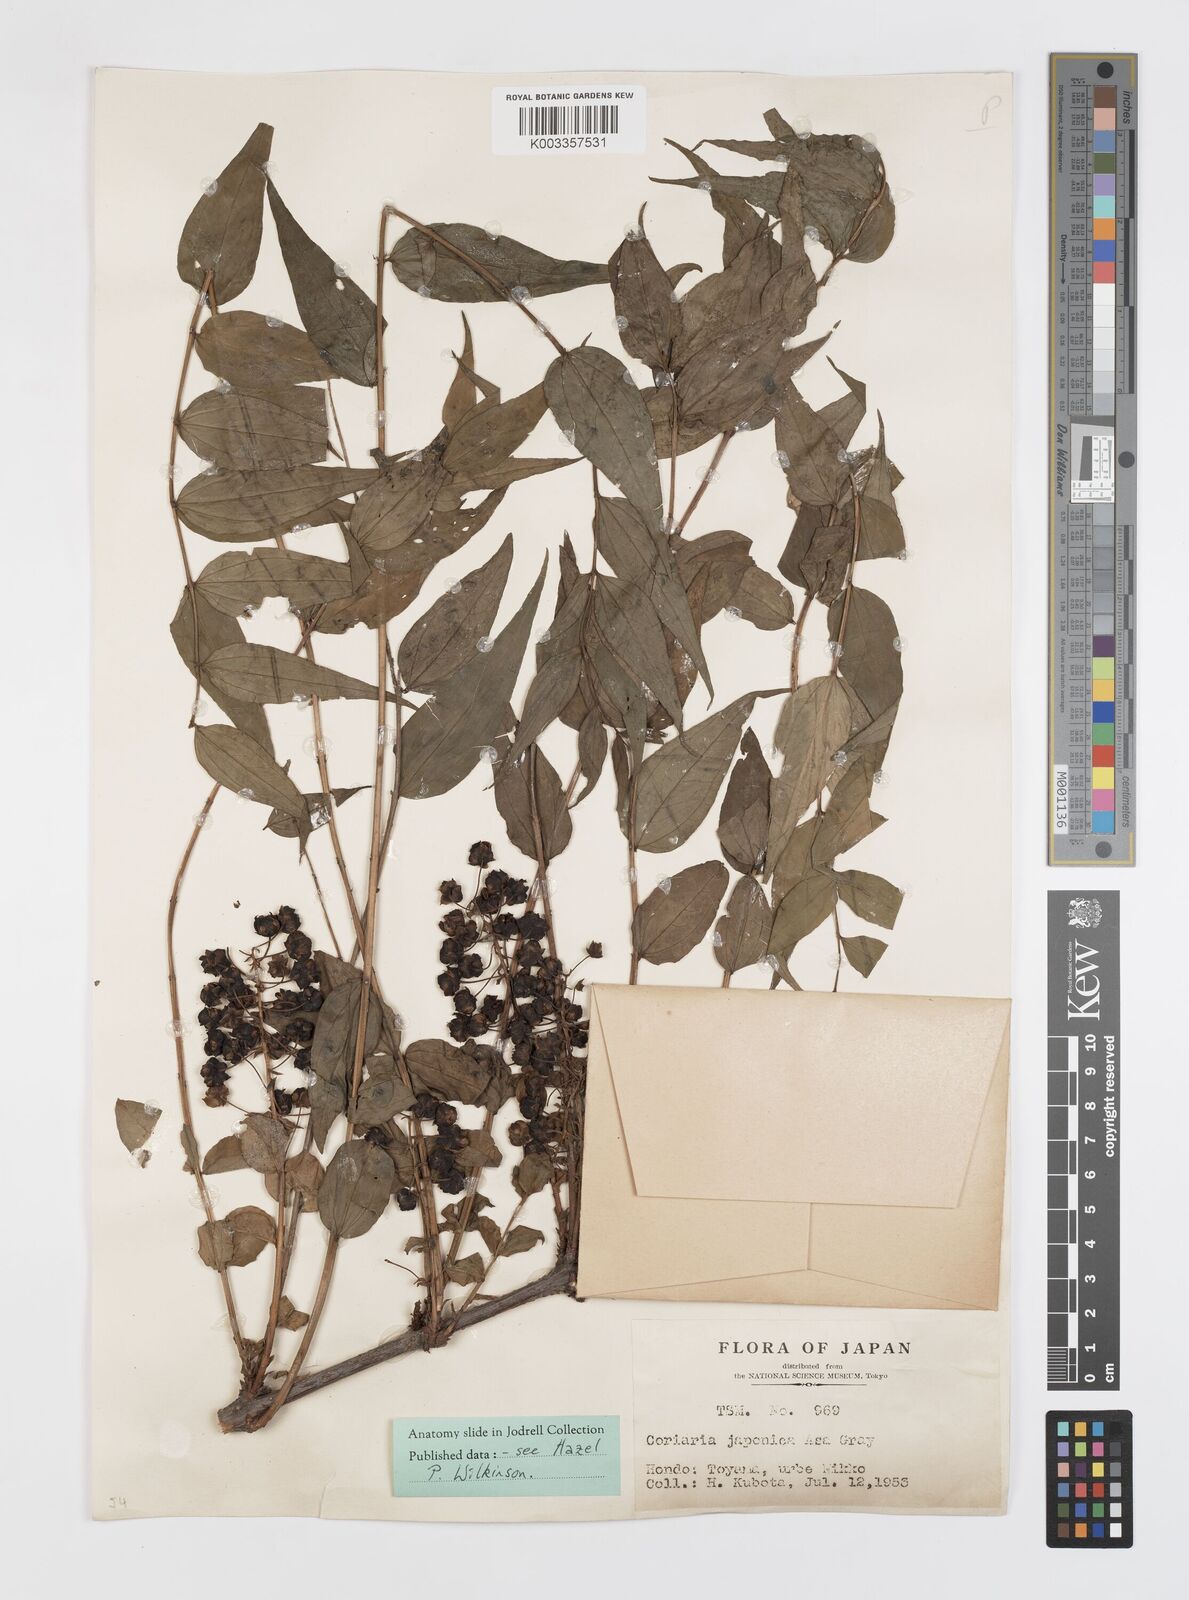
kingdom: Plantae
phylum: Tracheophyta
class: Magnoliopsida
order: Cucurbitales
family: Coriariaceae
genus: Coriaria
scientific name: Coriaria japonica
